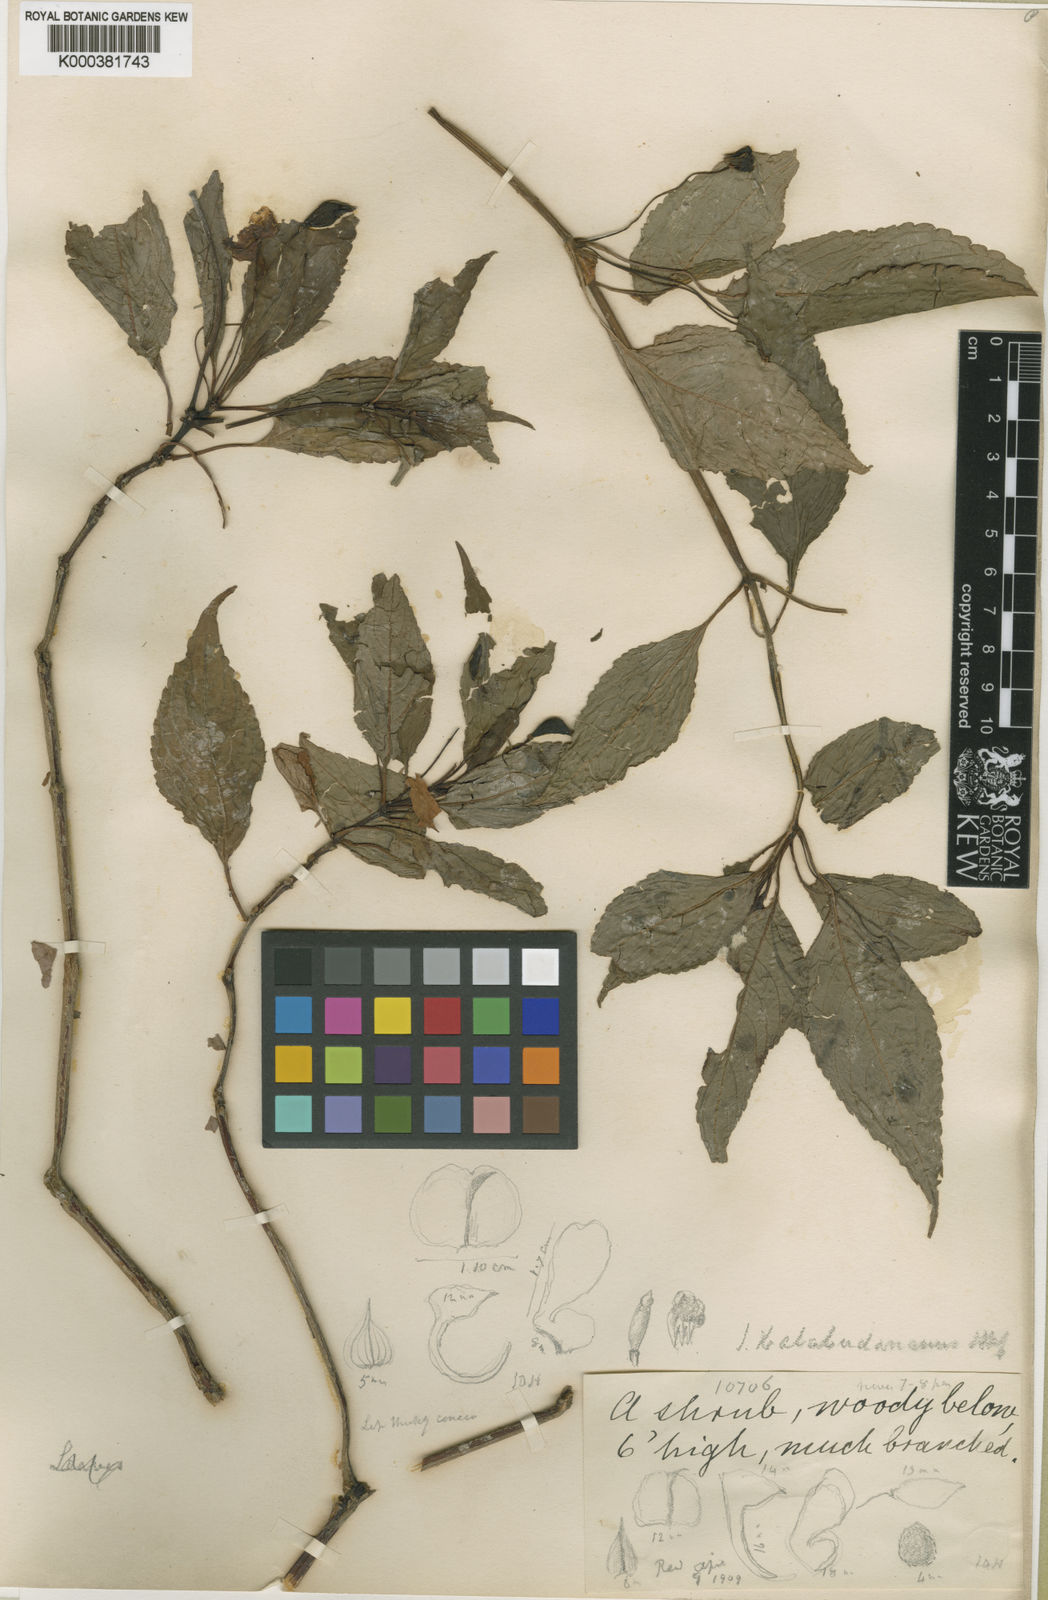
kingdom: Plantae
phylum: Tracheophyta
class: Magnoliopsida
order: Ericales
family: Balsaminaceae
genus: Impatiens
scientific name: Impatiens bababudenensis
